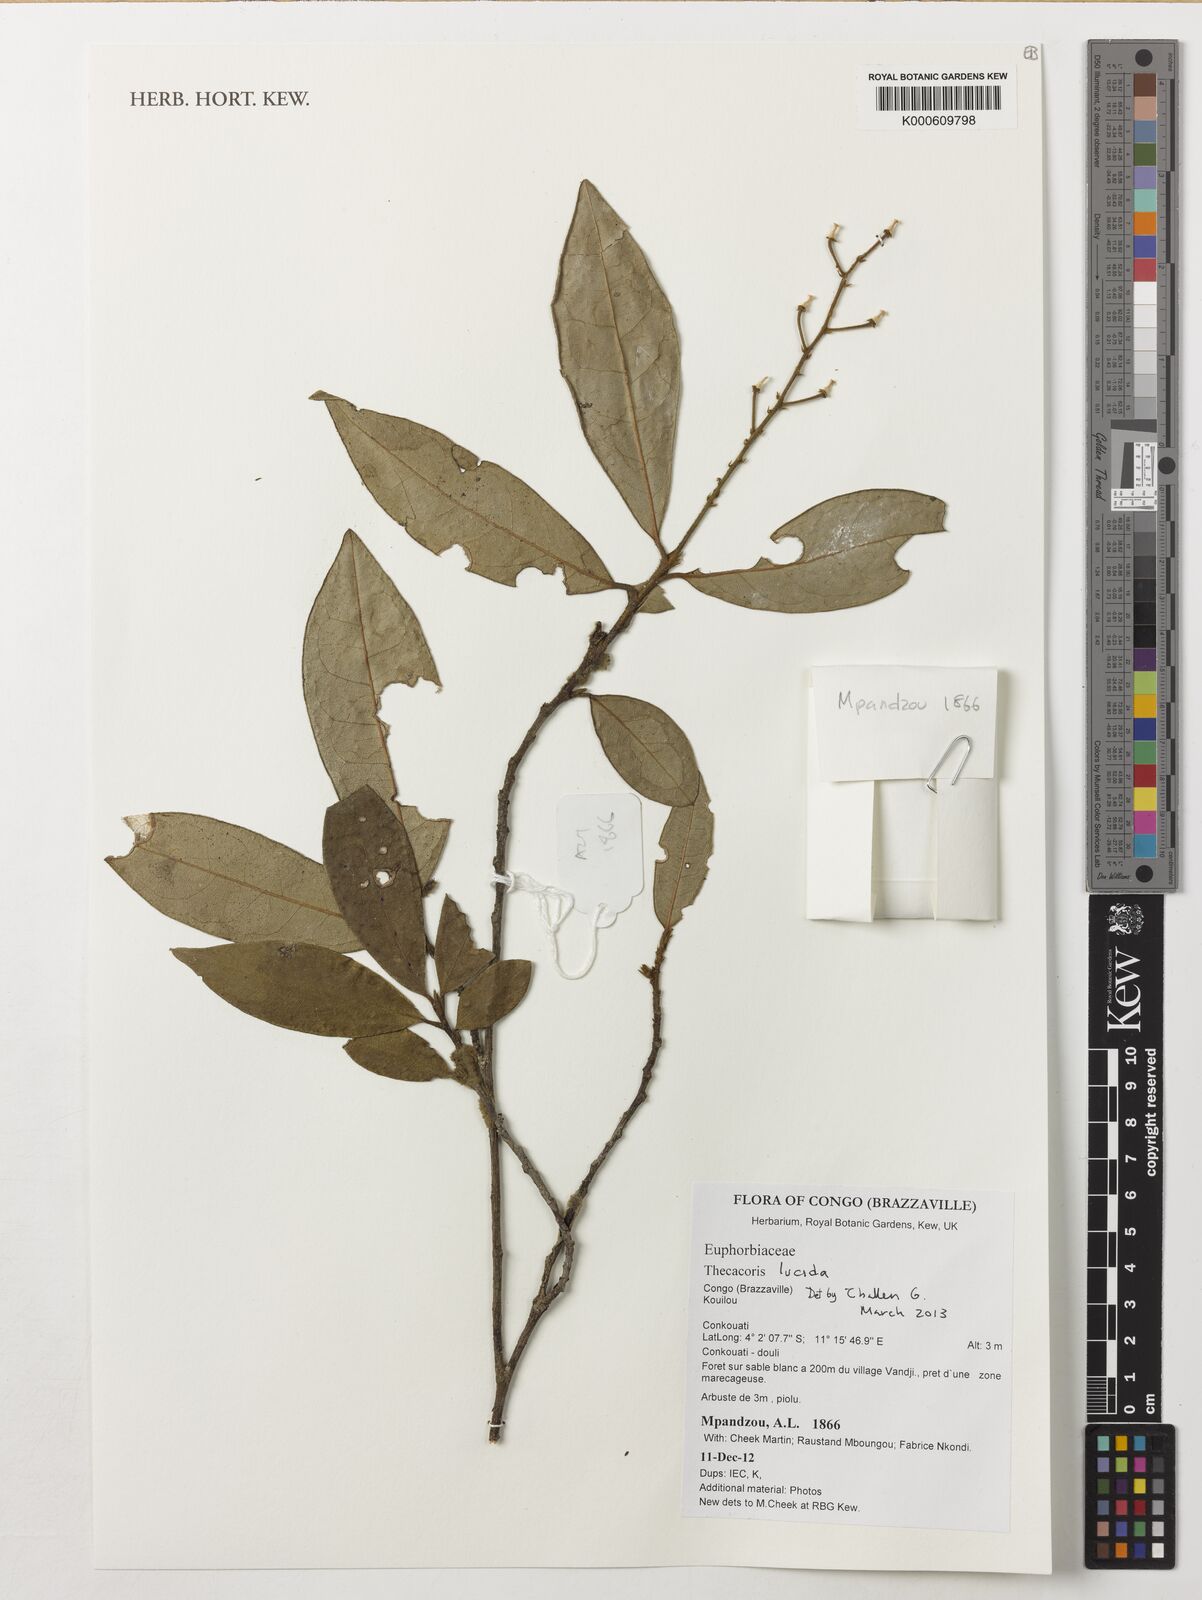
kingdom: Plantae
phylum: Tracheophyta
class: Magnoliopsida
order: Malpighiales
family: Phyllanthaceae
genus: Thecacoris
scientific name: Thecacoris lucida
